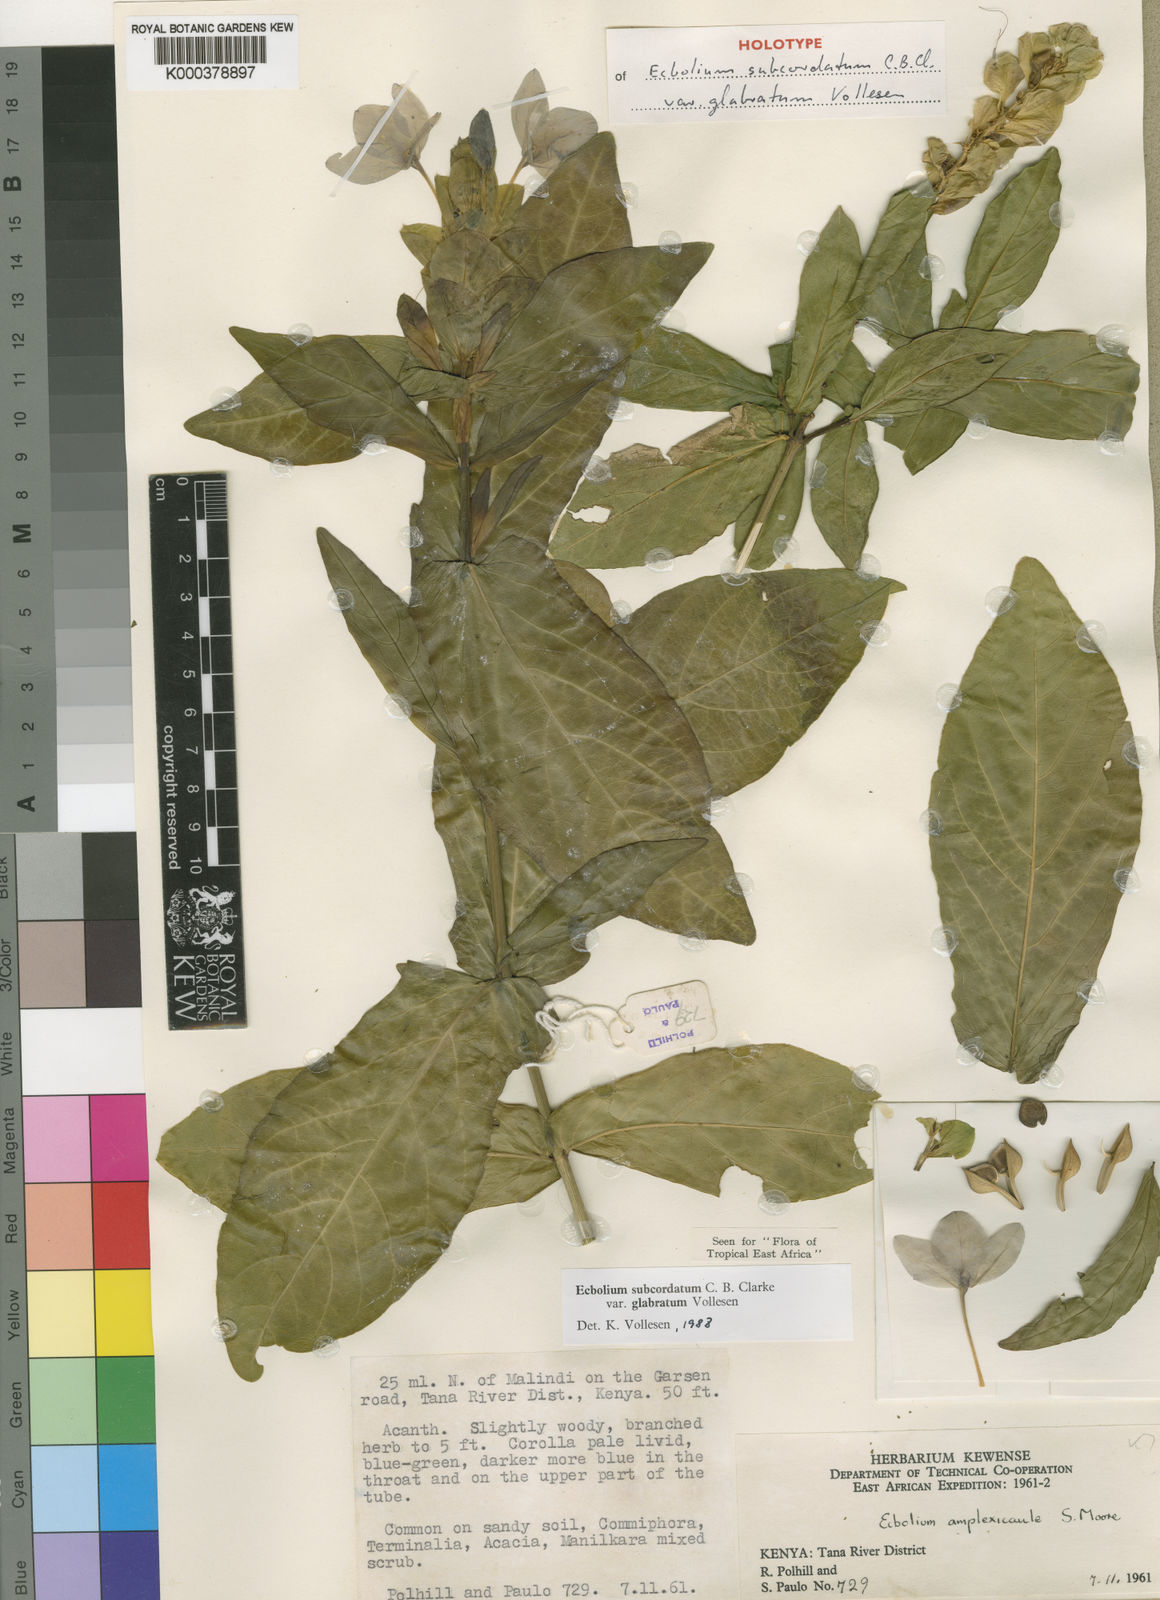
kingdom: Plantae
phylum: Tracheophyta
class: Magnoliopsida
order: Lamiales
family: Acanthaceae
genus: Ecbolium
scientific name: Ecbolium subcordatum
